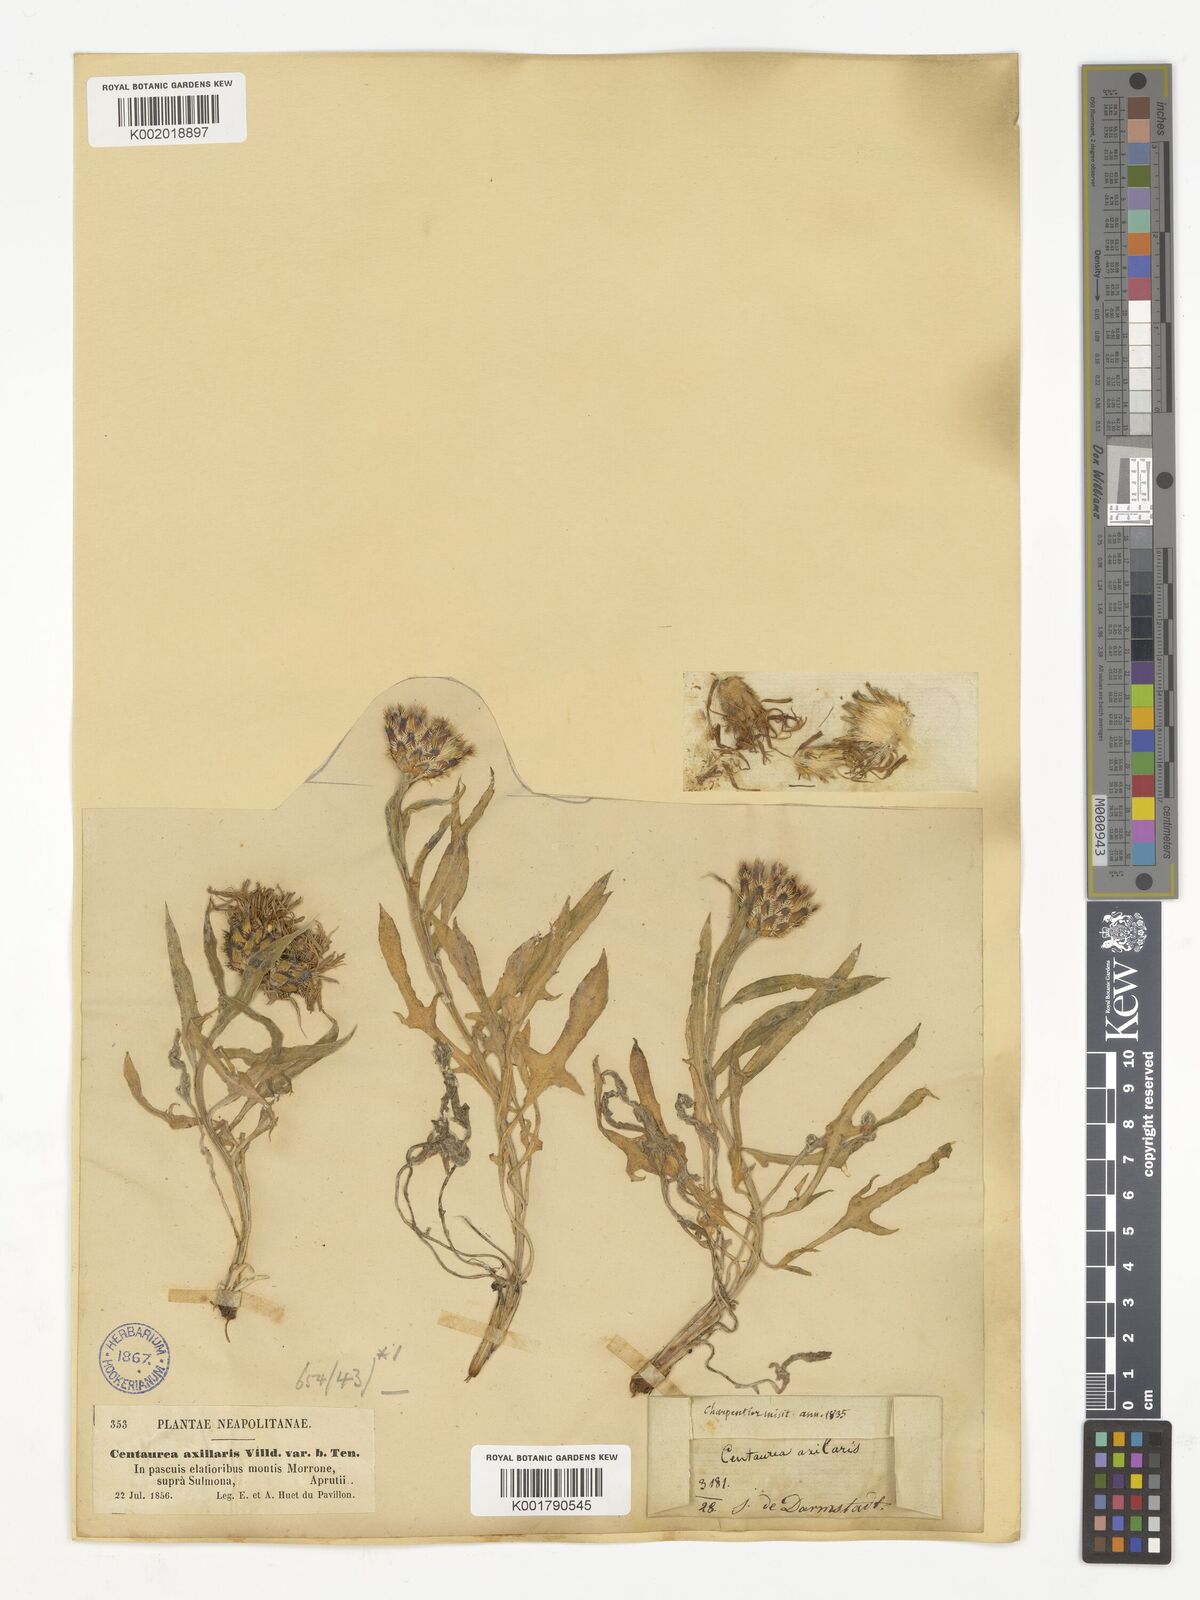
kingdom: Plantae
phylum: Tracheophyta
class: Magnoliopsida
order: Asterales
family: Asteraceae
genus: Centaurea
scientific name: Centaurea triumfettii
